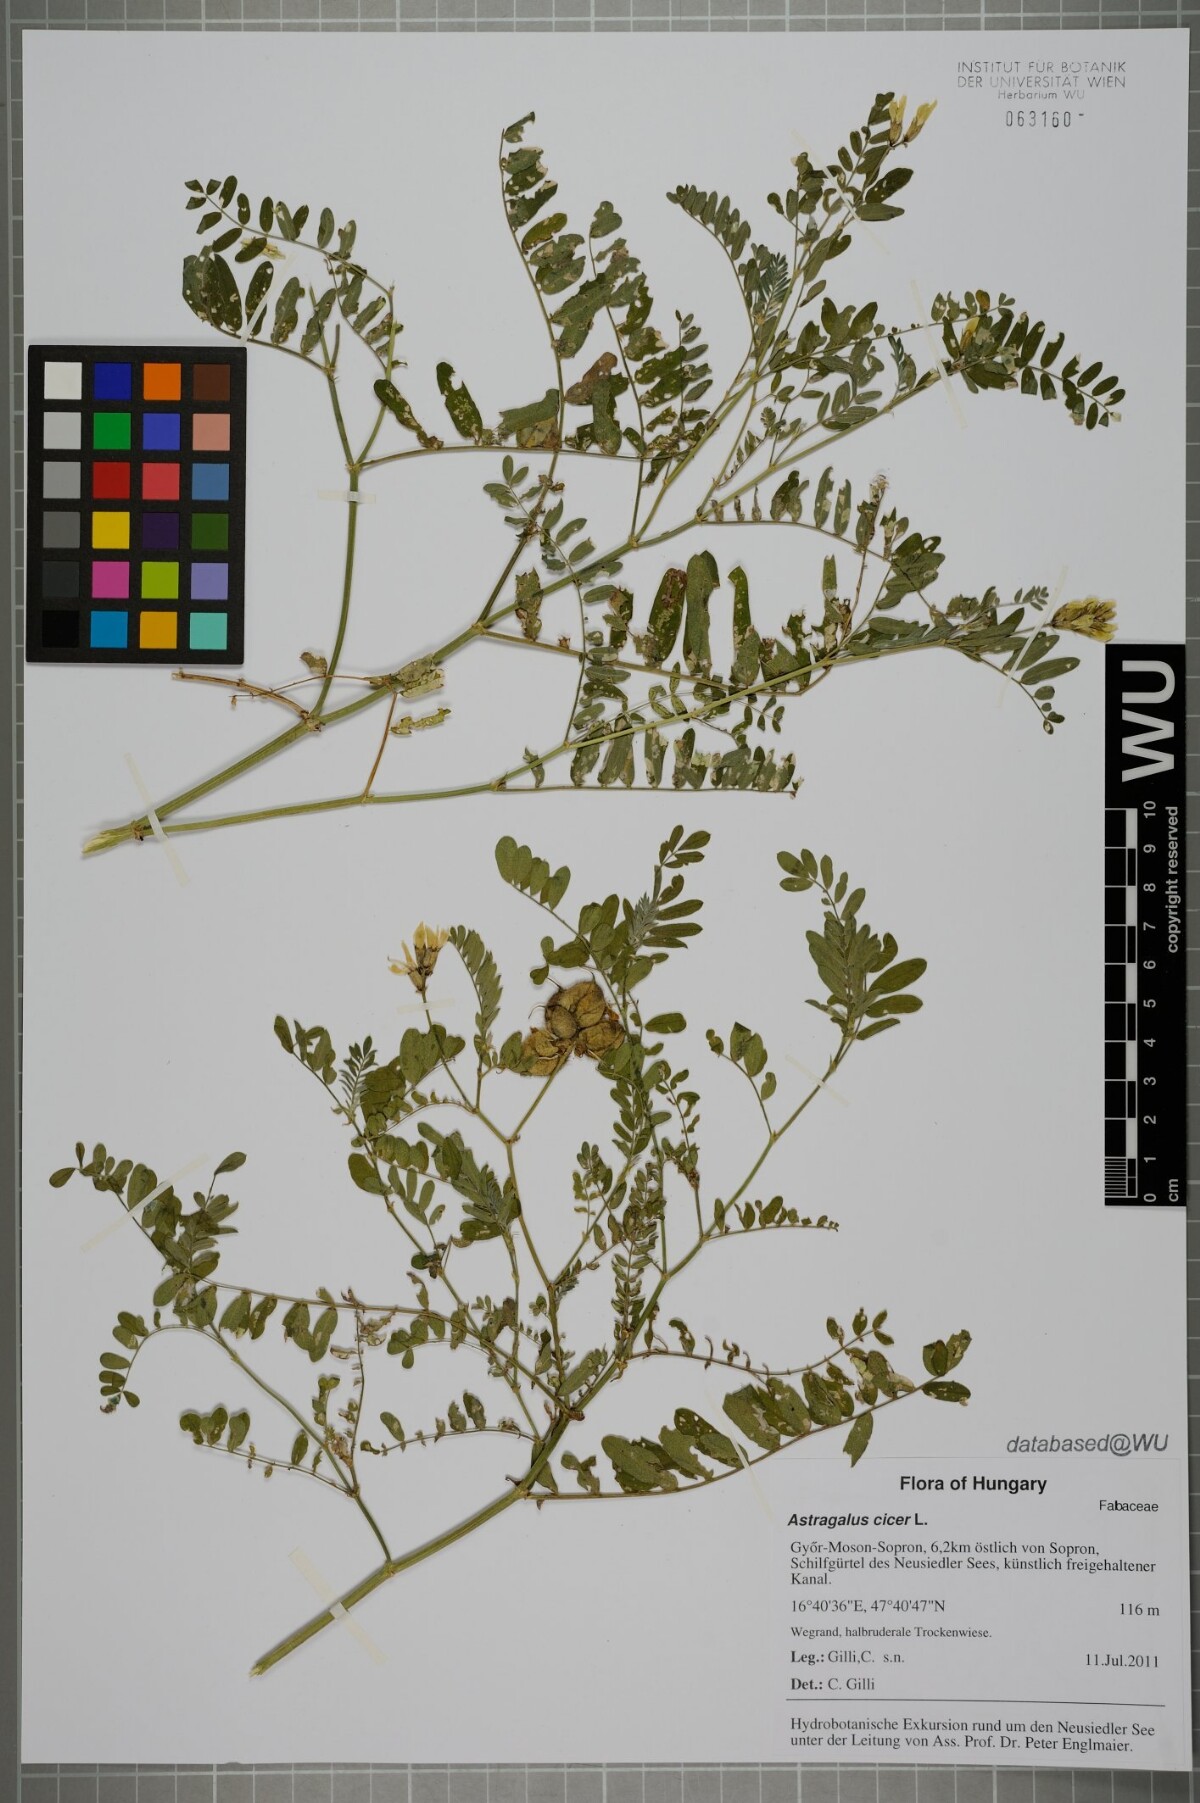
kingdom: Plantae
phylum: Tracheophyta
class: Magnoliopsida
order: Fabales
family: Fabaceae
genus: Astragalus
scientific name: Astragalus cicer
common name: Chick-pea milk-vetch
